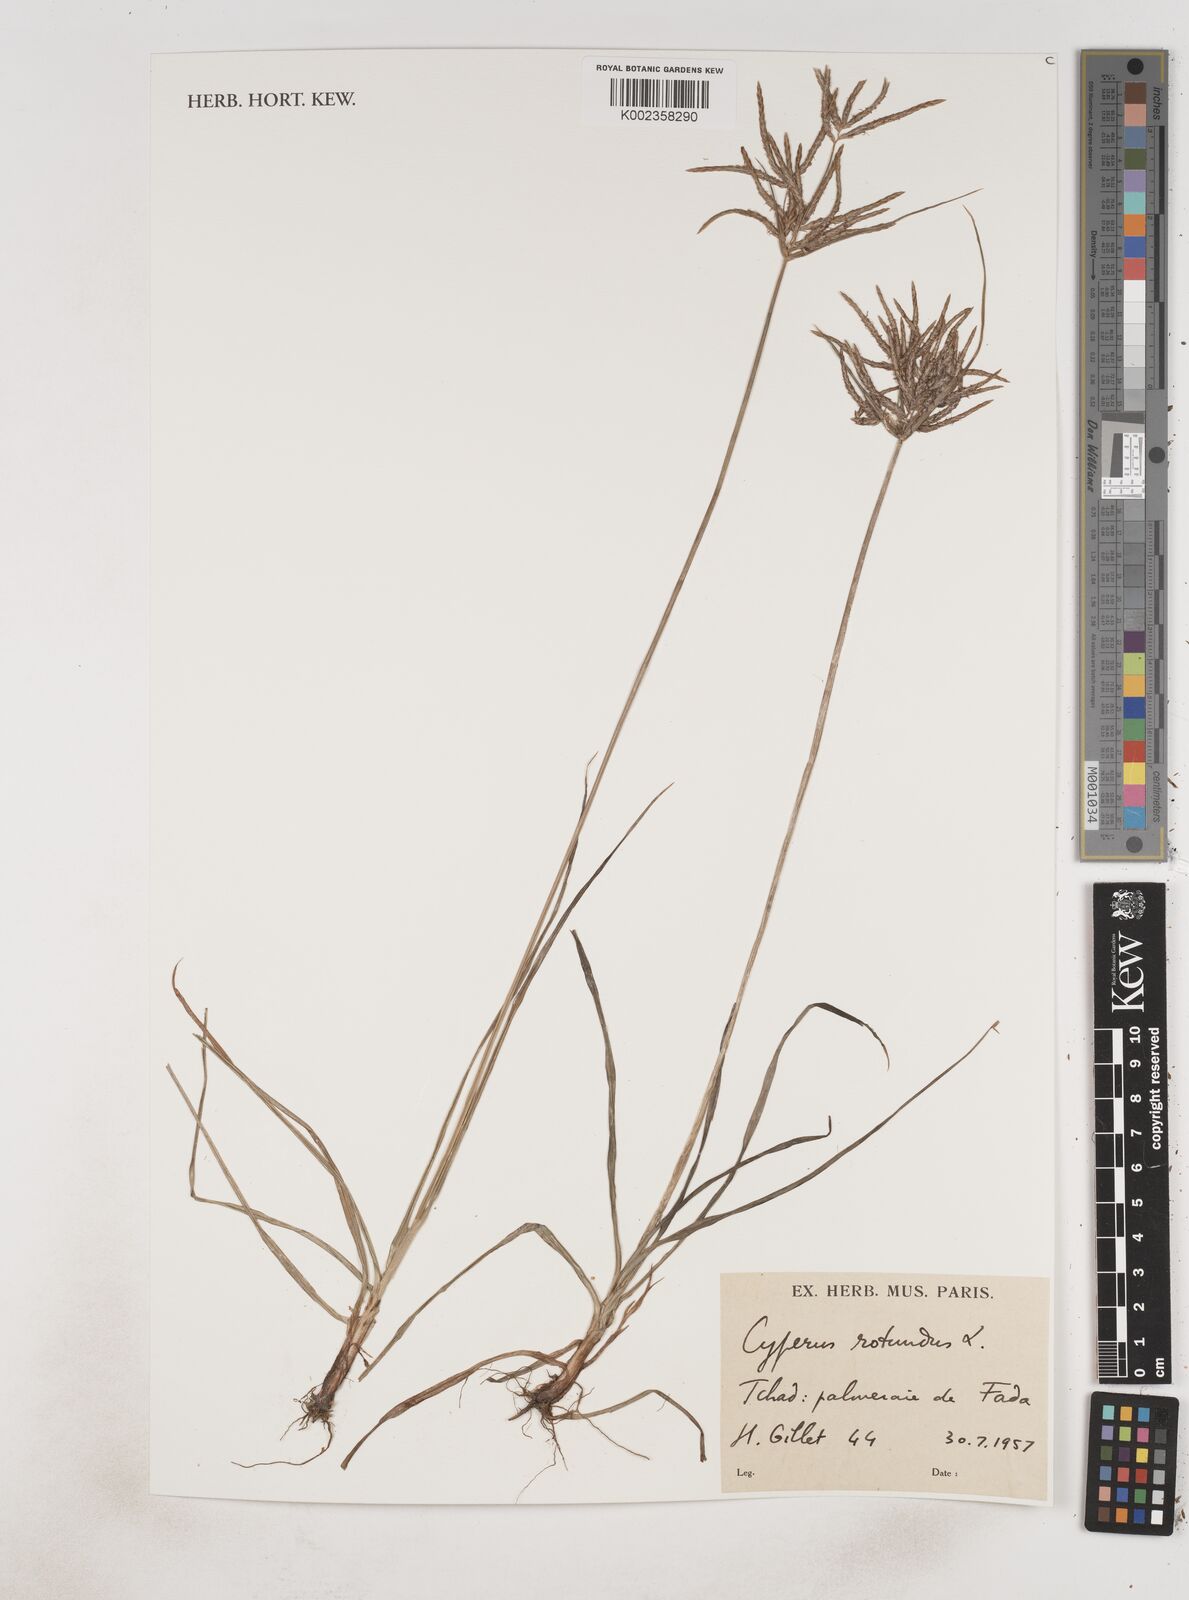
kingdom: Plantae
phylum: Tracheophyta
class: Liliopsida
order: Poales
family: Cyperaceae
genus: Cyperus
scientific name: Cyperus rotundus
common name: Nutgrass
